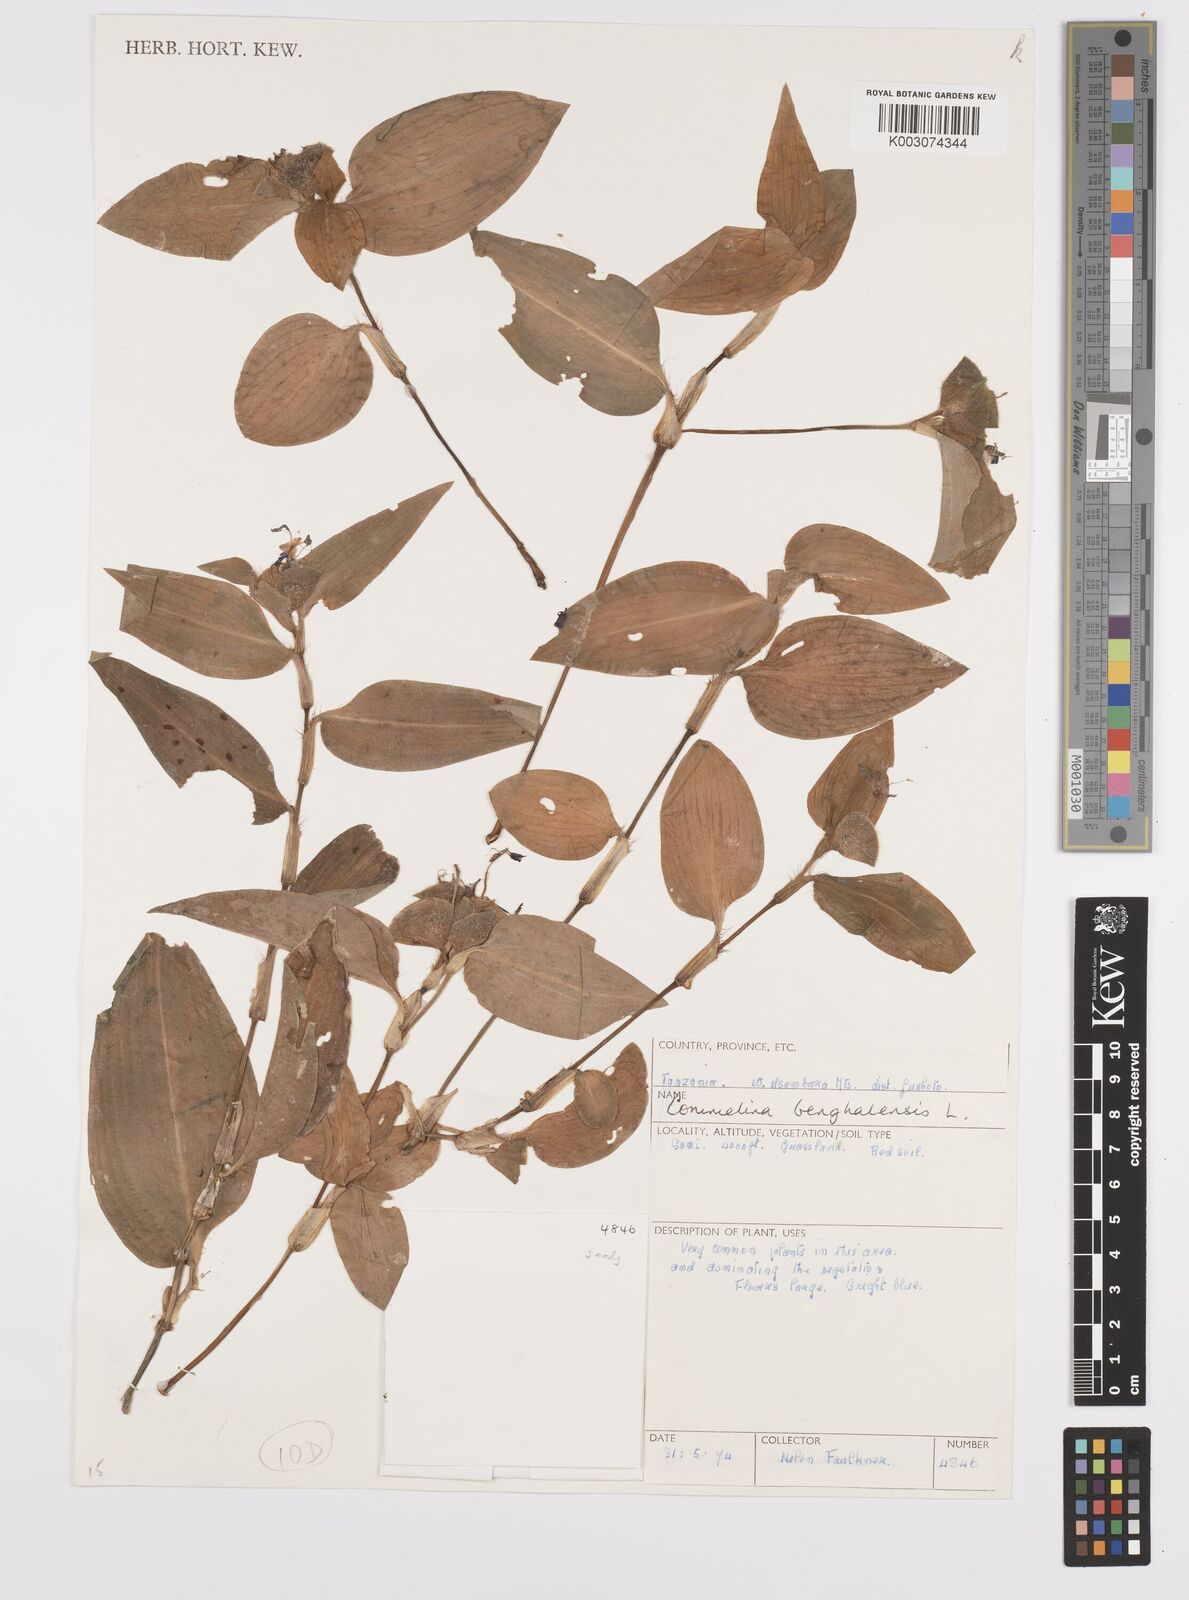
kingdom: Plantae
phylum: Tracheophyta
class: Liliopsida
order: Commelinales
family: Commelinaceae
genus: Commelina
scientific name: Commelina benghalensis
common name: Jio
